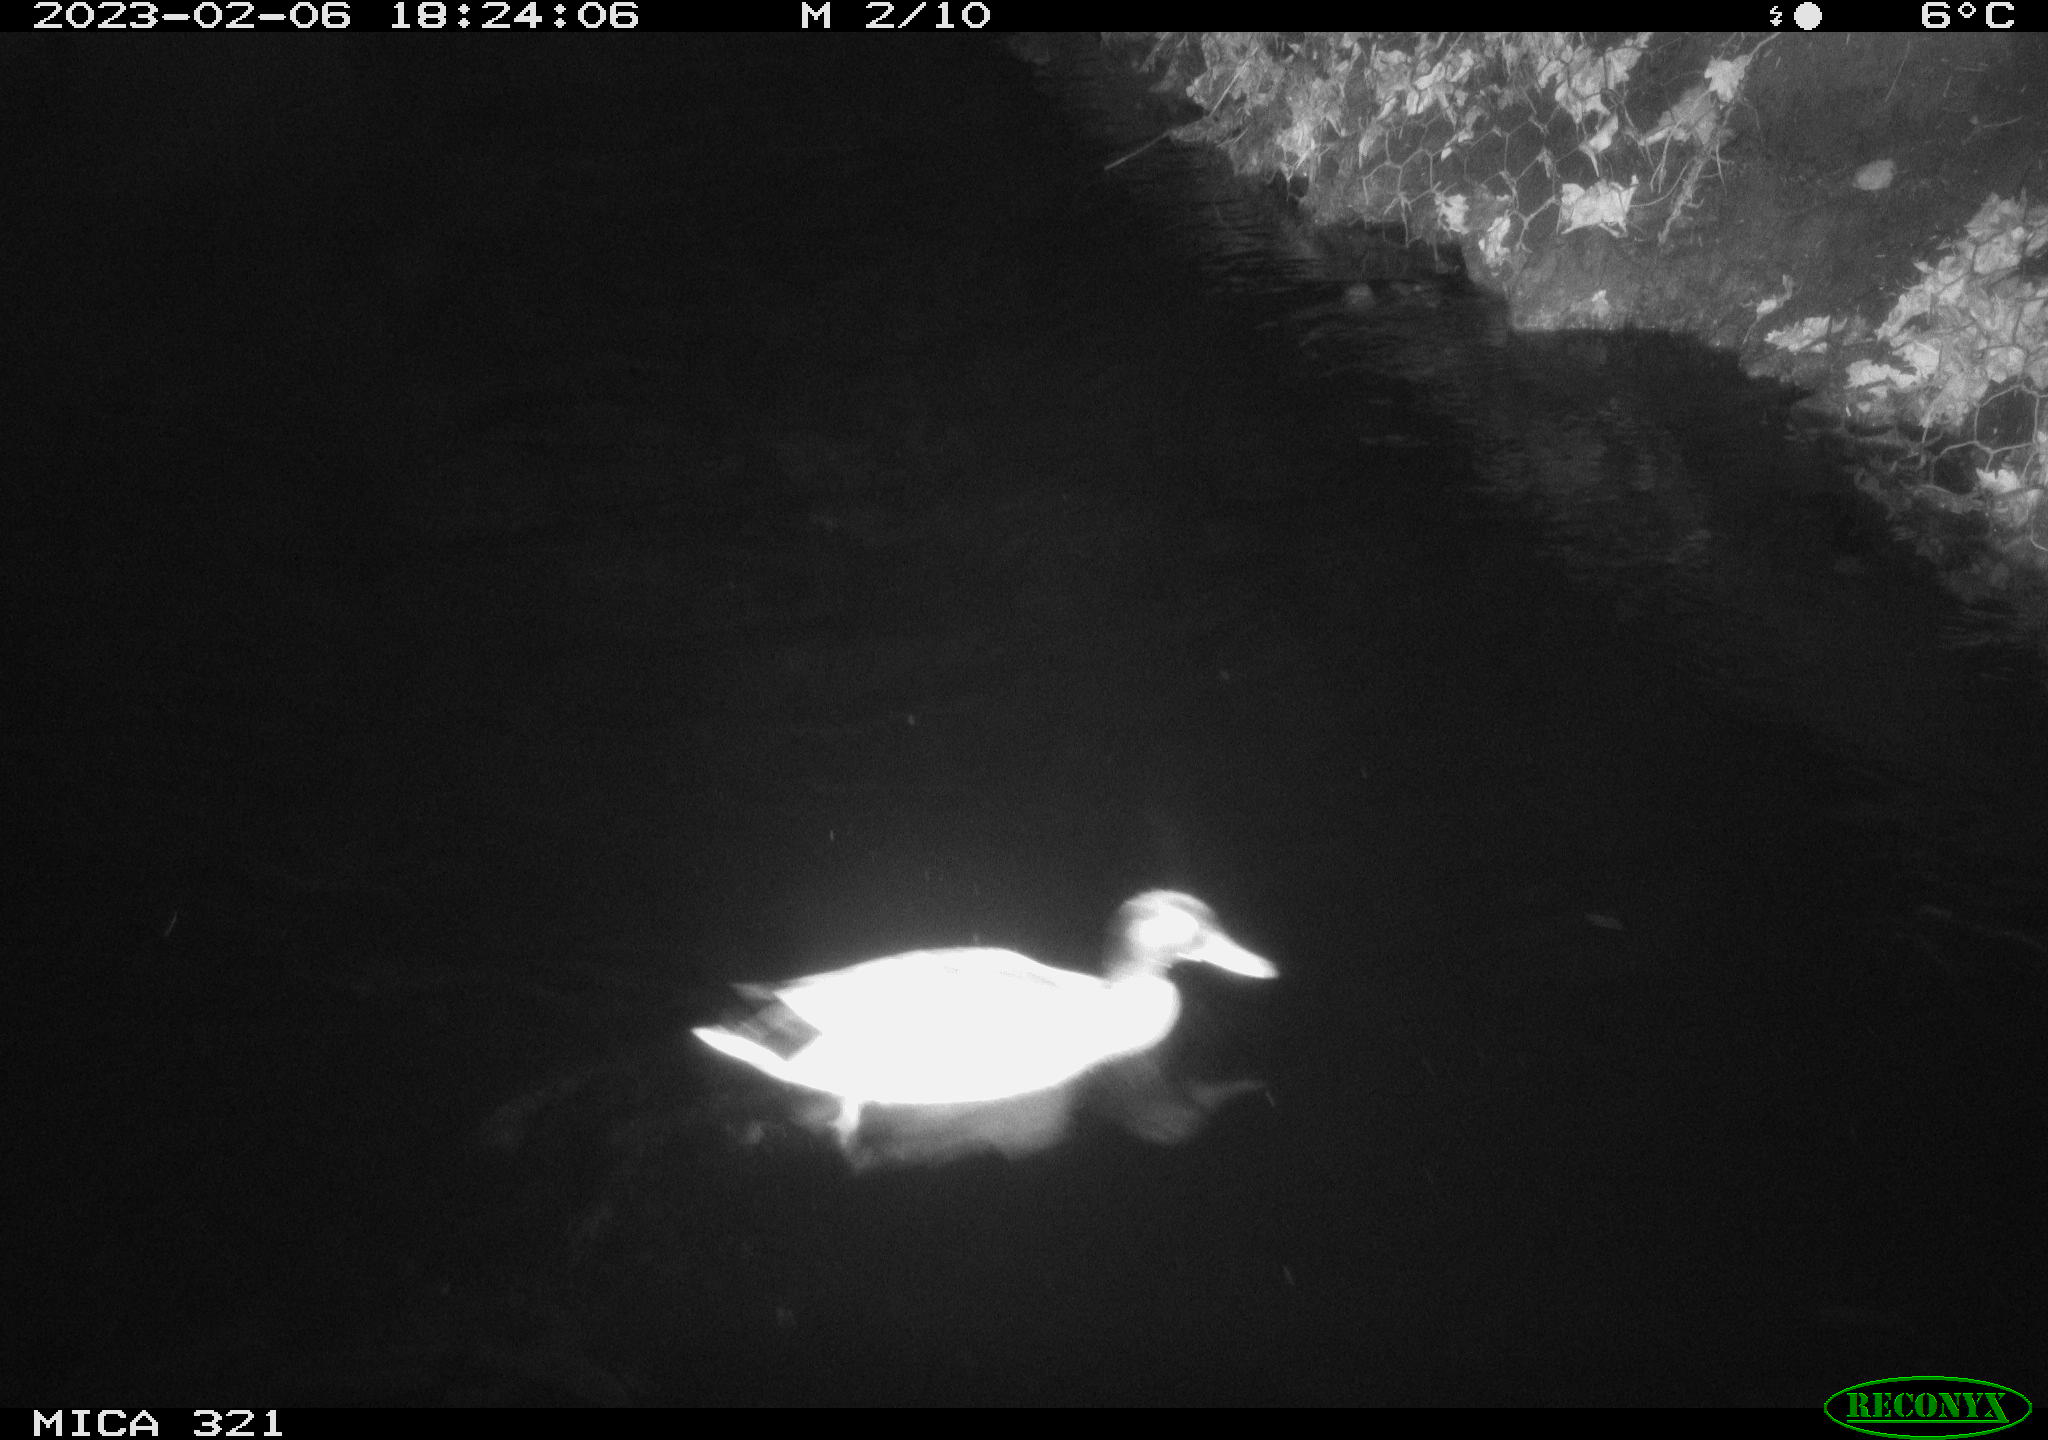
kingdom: Animalia
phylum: Chordata
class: Aves
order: Anseriformes
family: Anatidae
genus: Anas
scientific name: Anas
